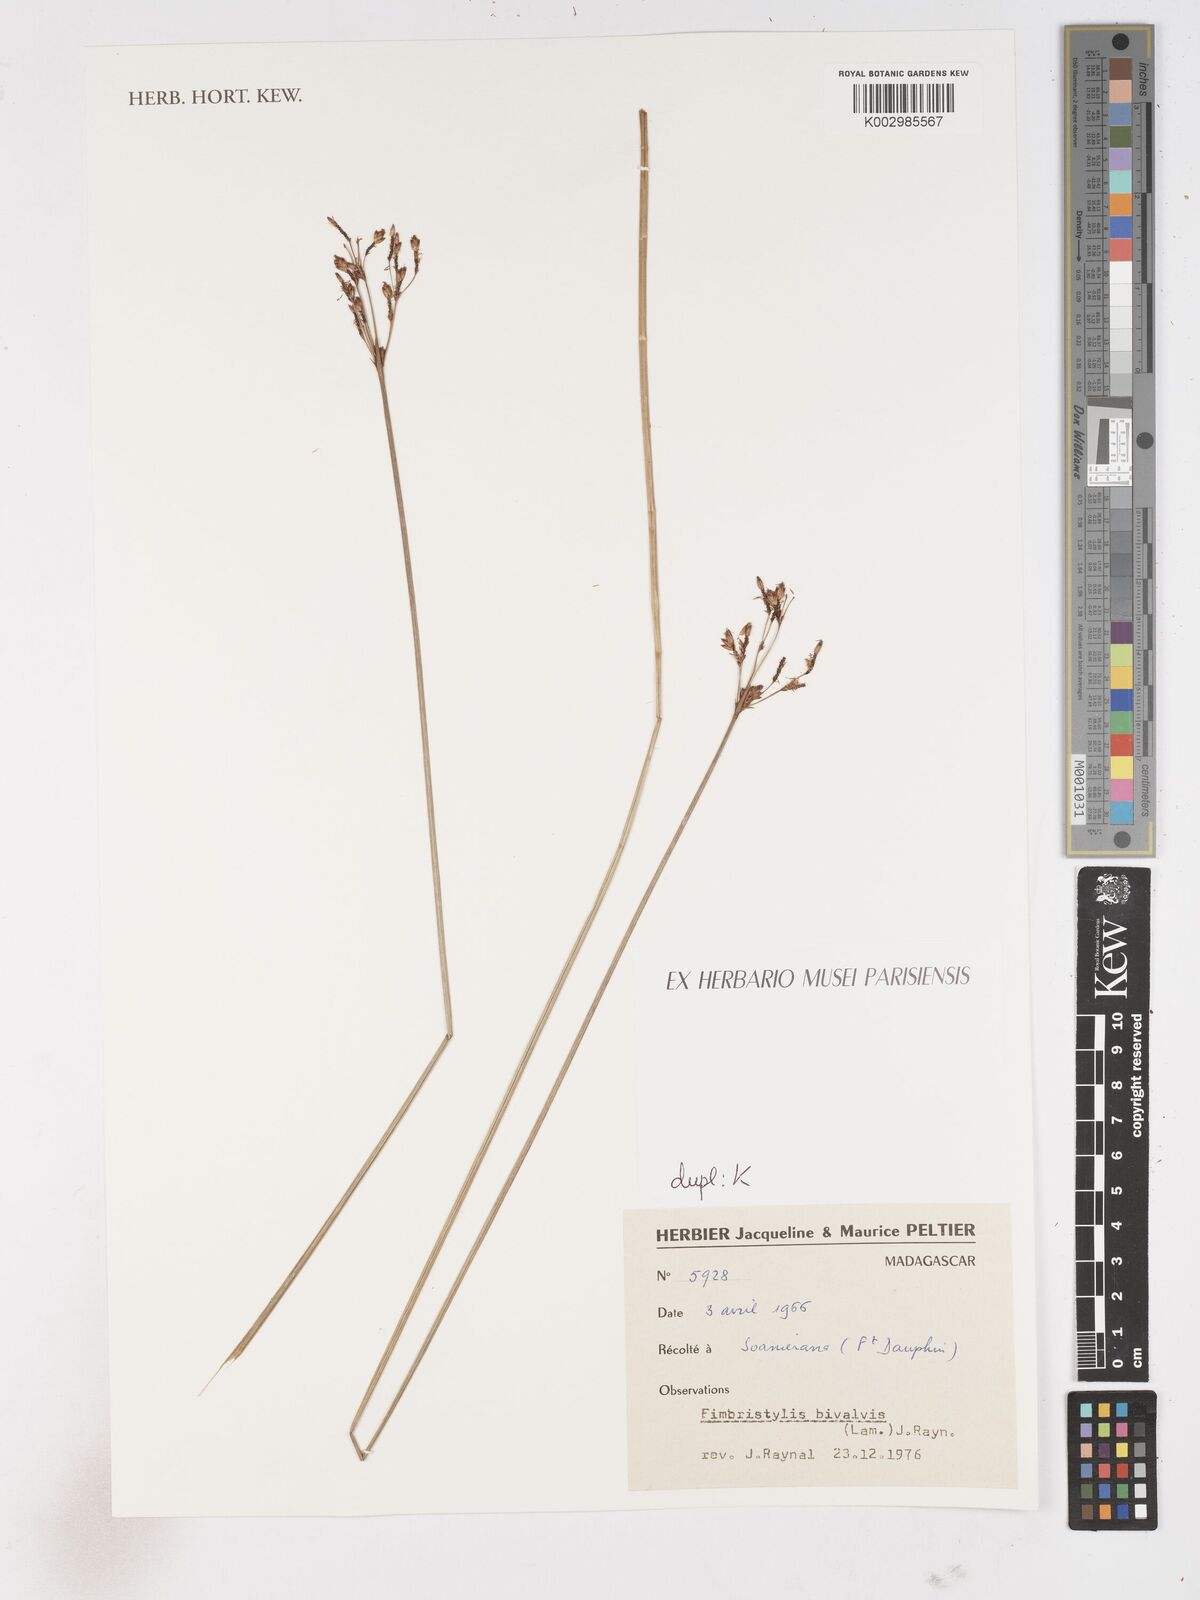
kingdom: Plantae
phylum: Tracheophyta
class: Liliopsida
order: Poales
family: Cyperaceae
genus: Fimbristylis
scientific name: Fimbristylis bivalvis
